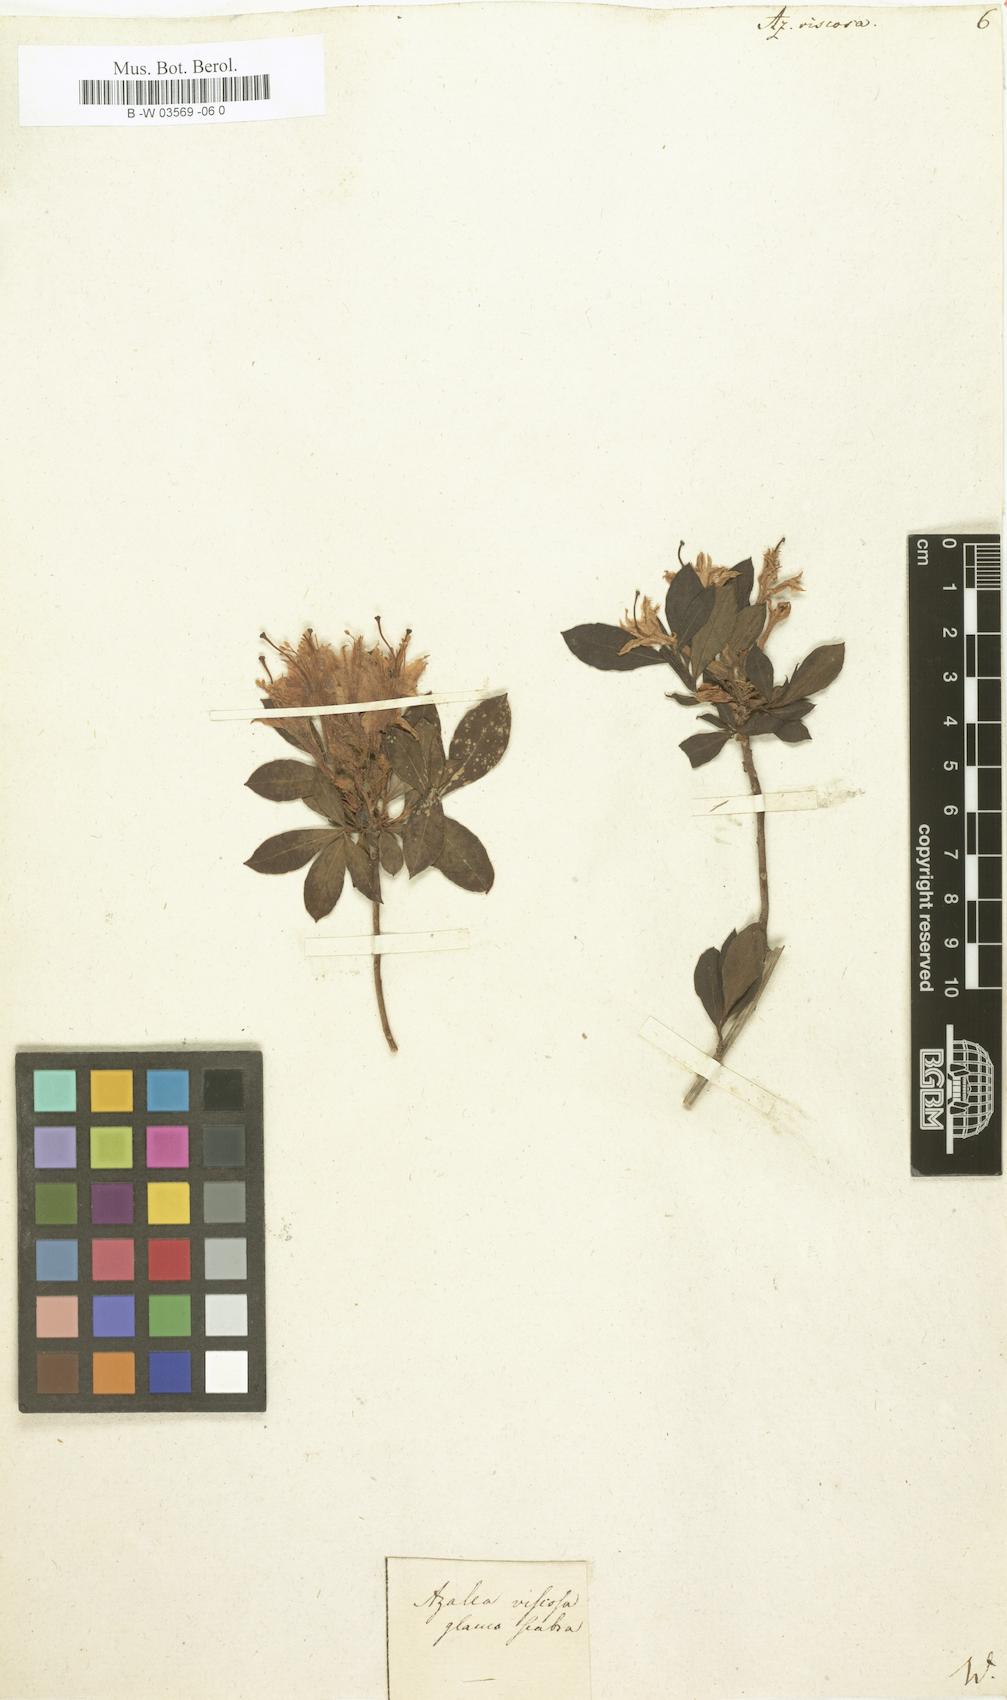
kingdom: Plantae
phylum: Tracheophyta
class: Magnoliopsida
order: Ericales
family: Ericaceae
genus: Rhododendron
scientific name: Rhododendron viscosum
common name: Clammy azalea
